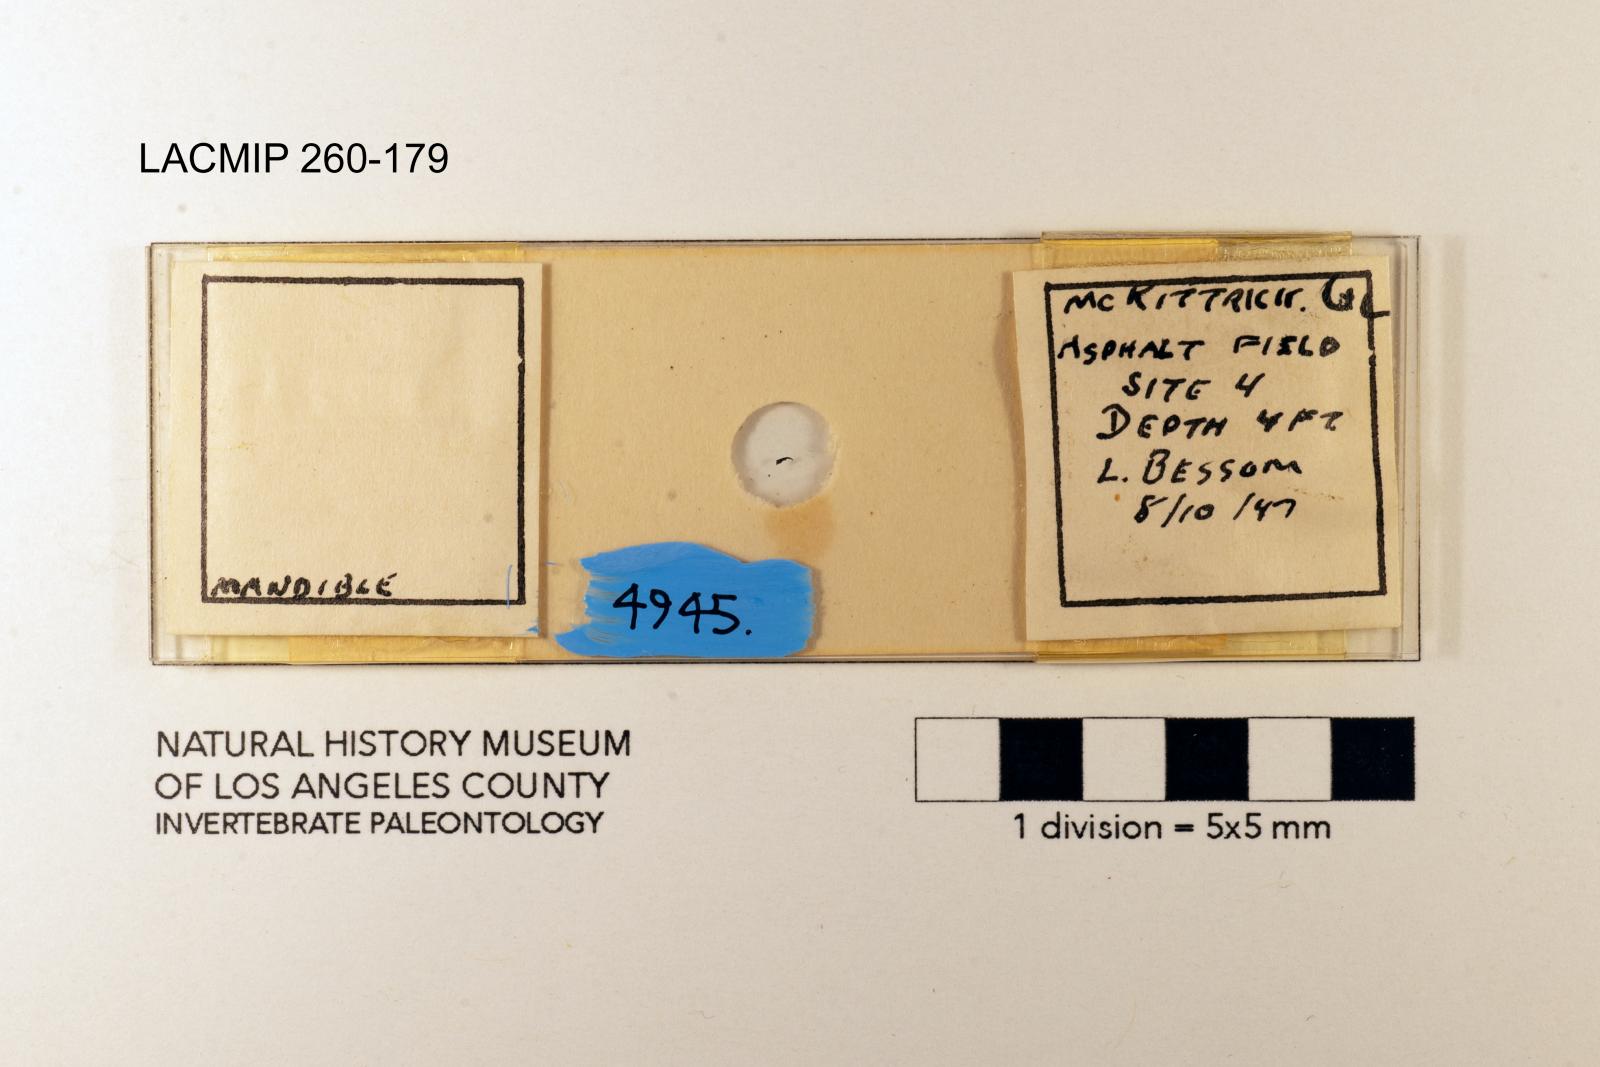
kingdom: Animalia
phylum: Arthropoda
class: Insecta
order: Coleoptera
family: Carabidae
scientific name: Carabidae
